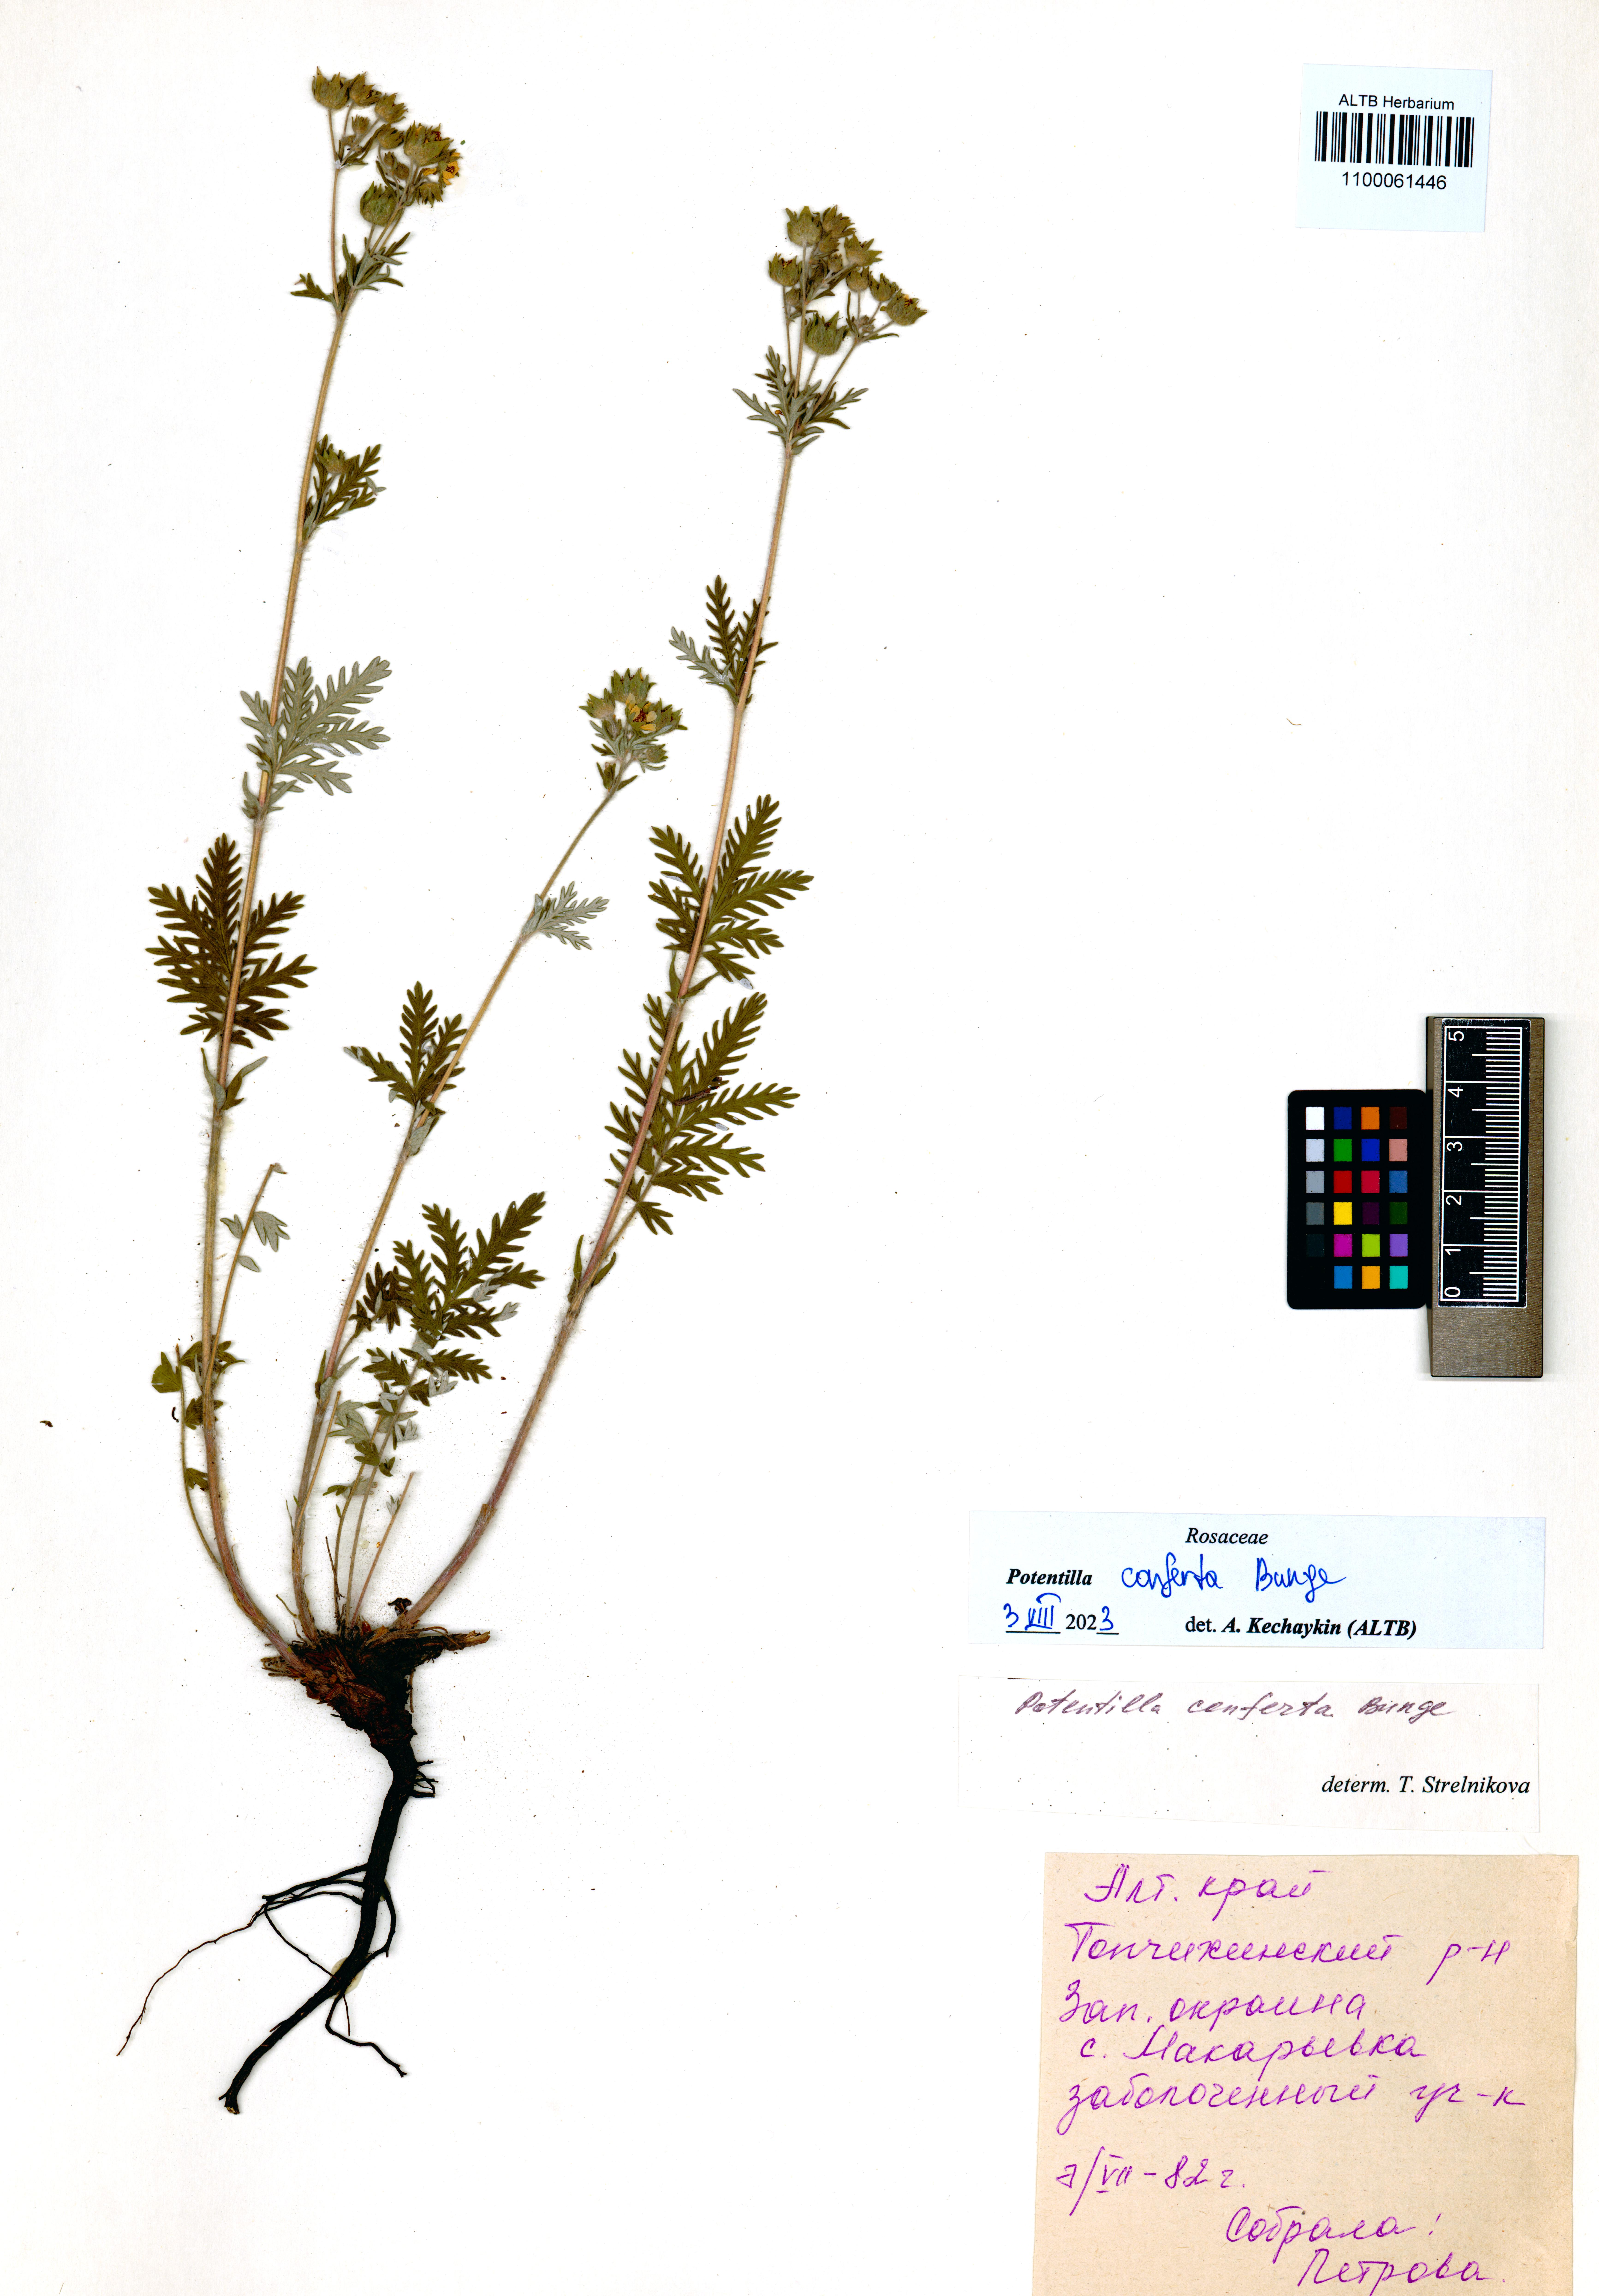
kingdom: Plantae
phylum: Tracheophyta
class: Magnoliopsida
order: Rosales
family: Rosaceae
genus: Potentilla
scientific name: Potentilla conferta
